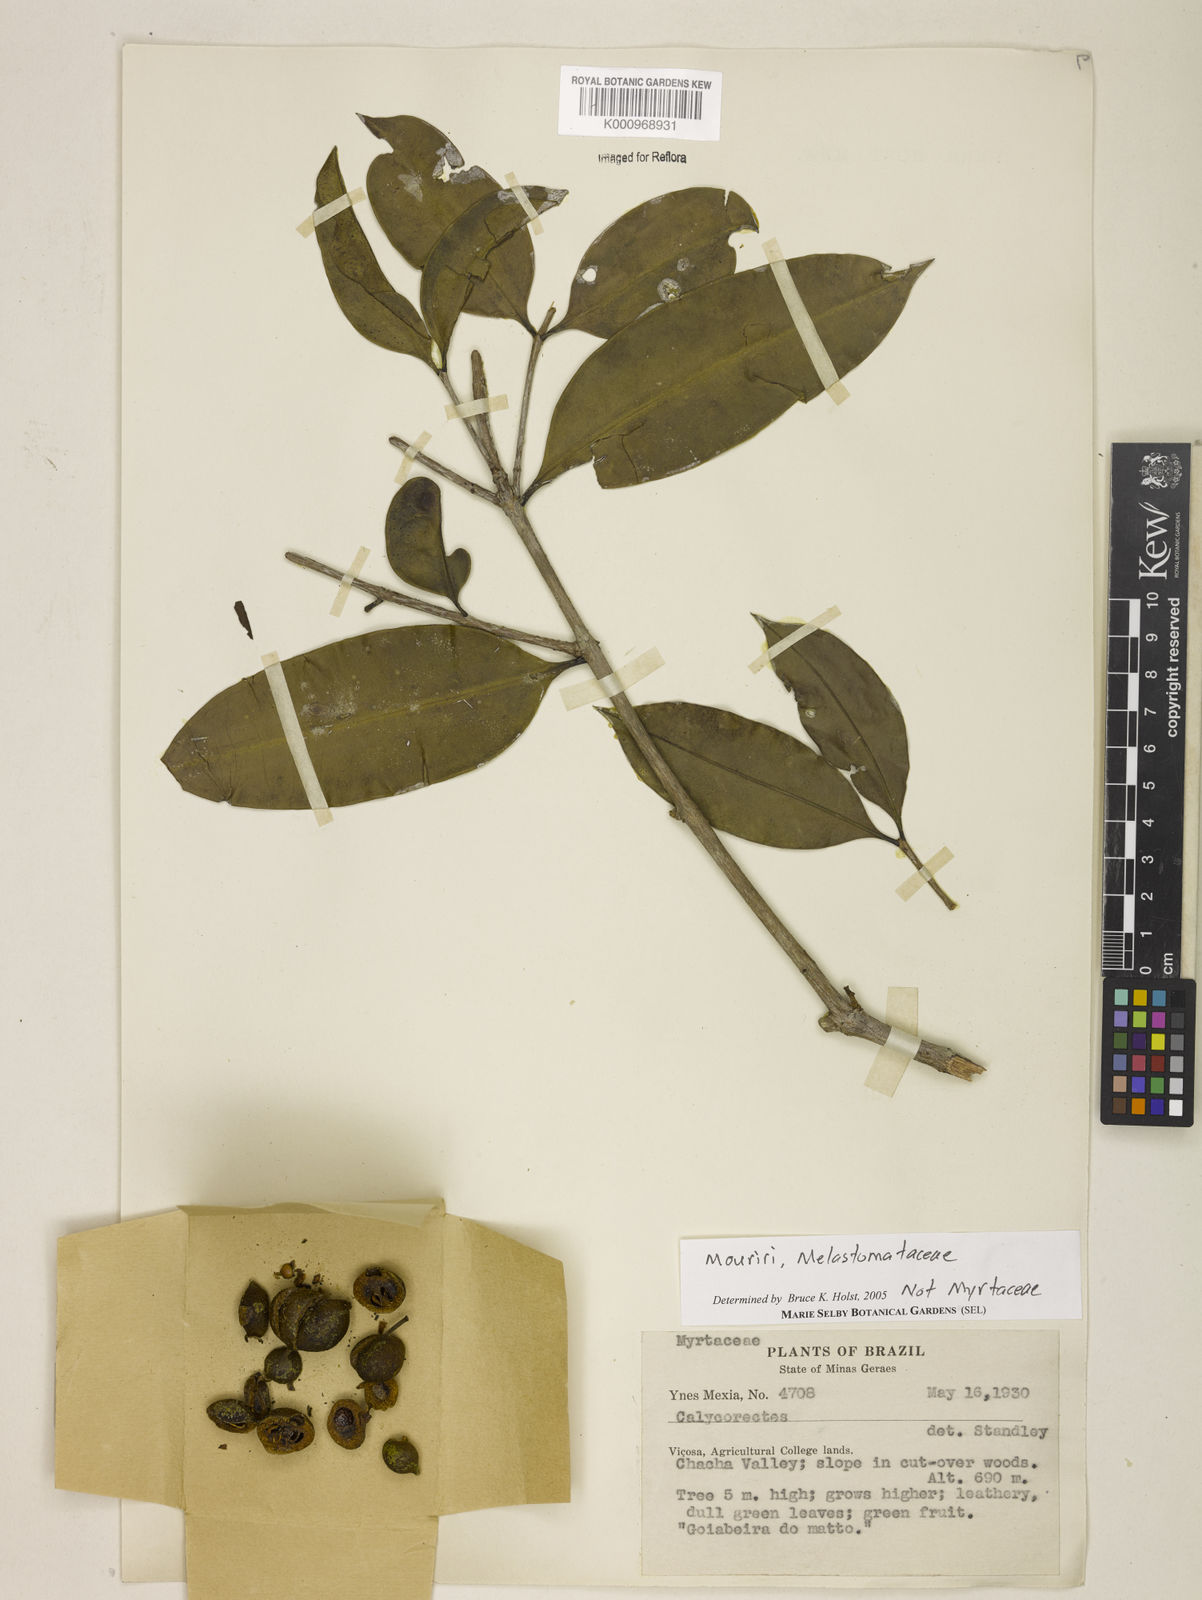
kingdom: Plantae
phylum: Tracheophyta
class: Magnoliopsida
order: Myrtales
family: Melastomataceae
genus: Mouriri
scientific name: Mouriri
